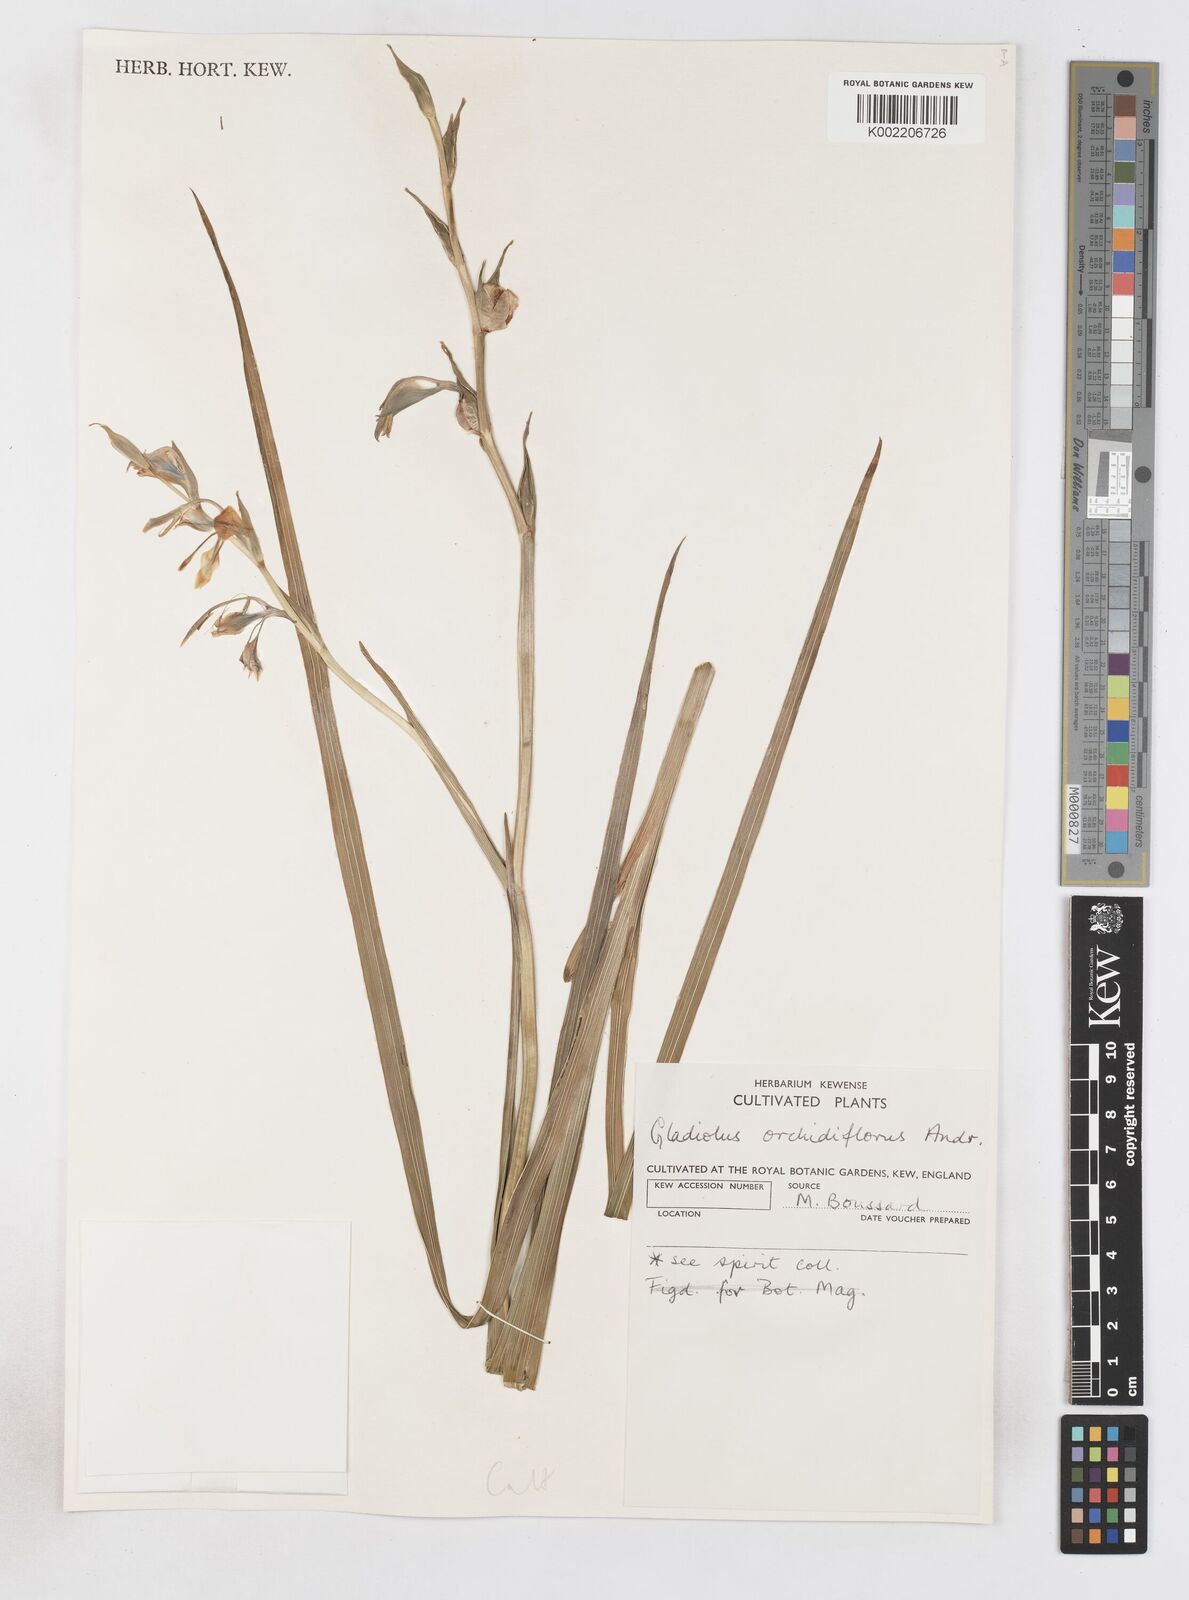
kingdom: Plantae
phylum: Tracheophyta
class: Liliopsida
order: Asparagales
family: Iridaceae
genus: Gladiolus
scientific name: Gladiolus orchidiflorus
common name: Gray kalkoentjie
